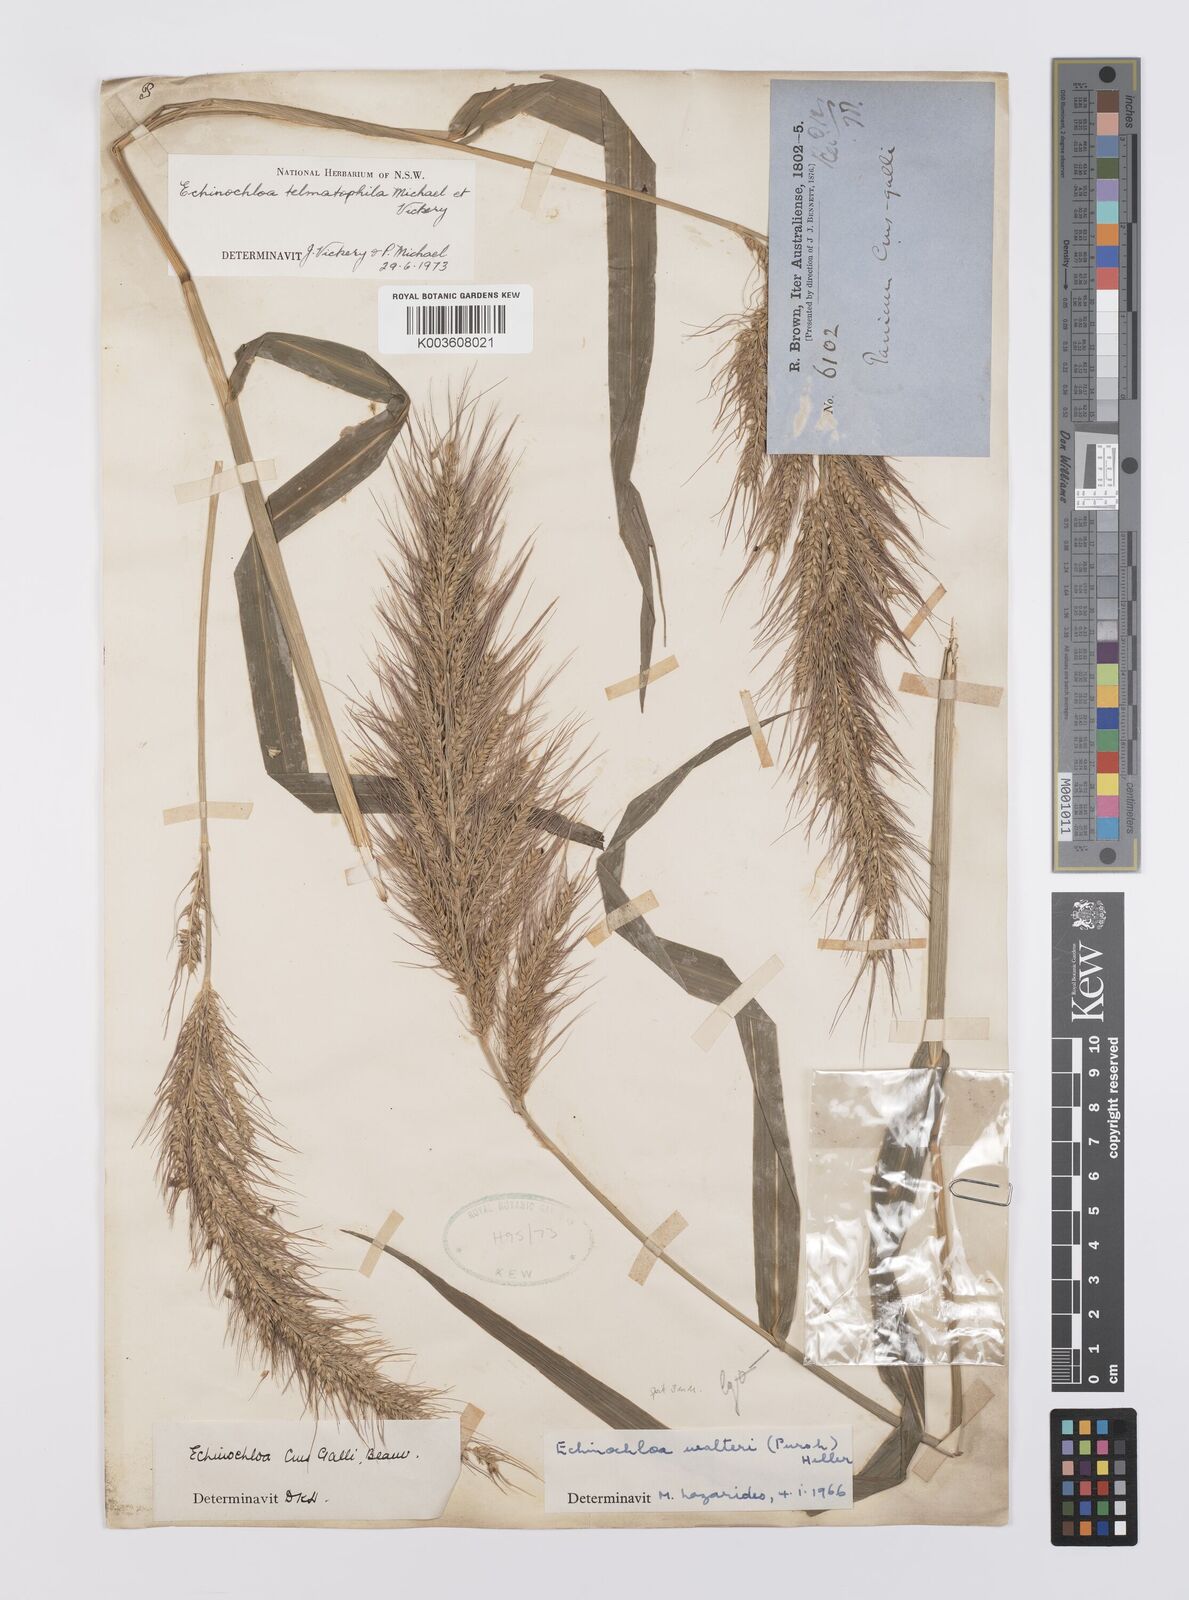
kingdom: Plantae
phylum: Tracheophyta
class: Liliopsida
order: Poales
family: Poaceae
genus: Echinochloa
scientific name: Echinochloa crus-galli
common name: Cockspur
